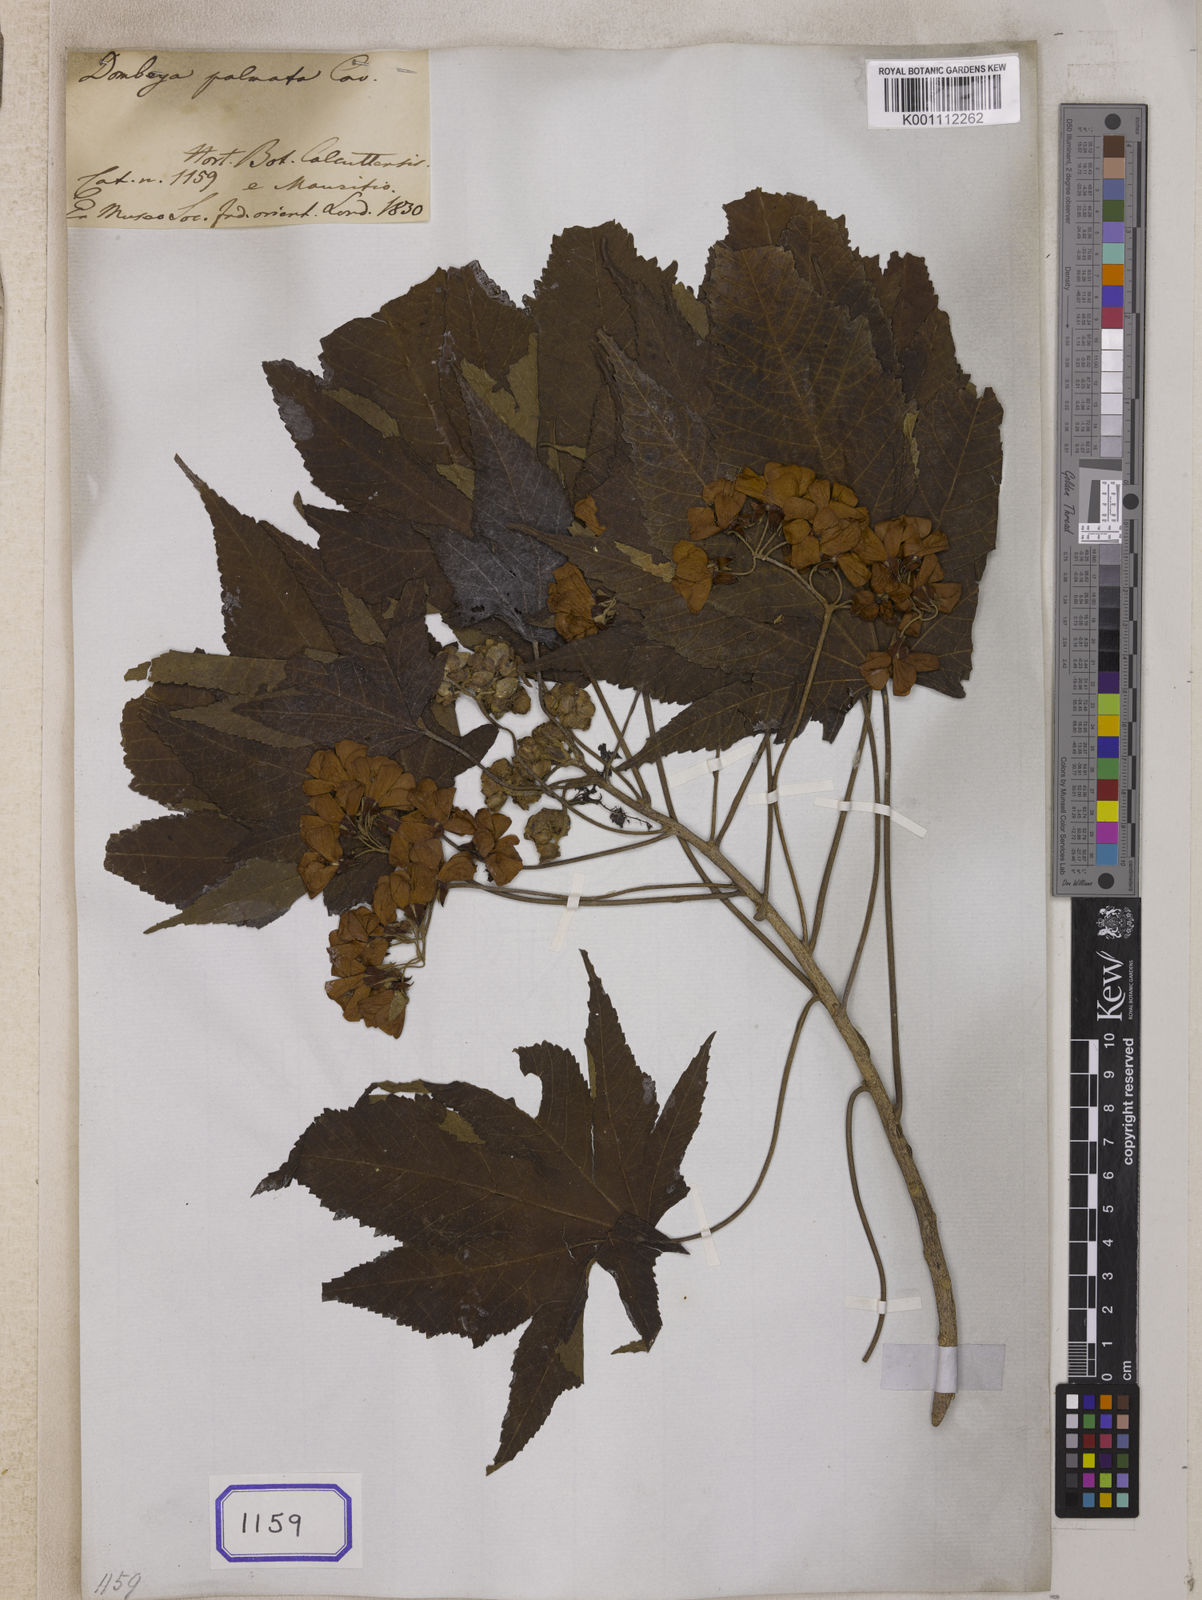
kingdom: Plantae
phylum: Tracheophyta
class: Magnoliopsida
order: Malvales
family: Malvaceae
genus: Dombeya
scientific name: Dombeya acutangula
